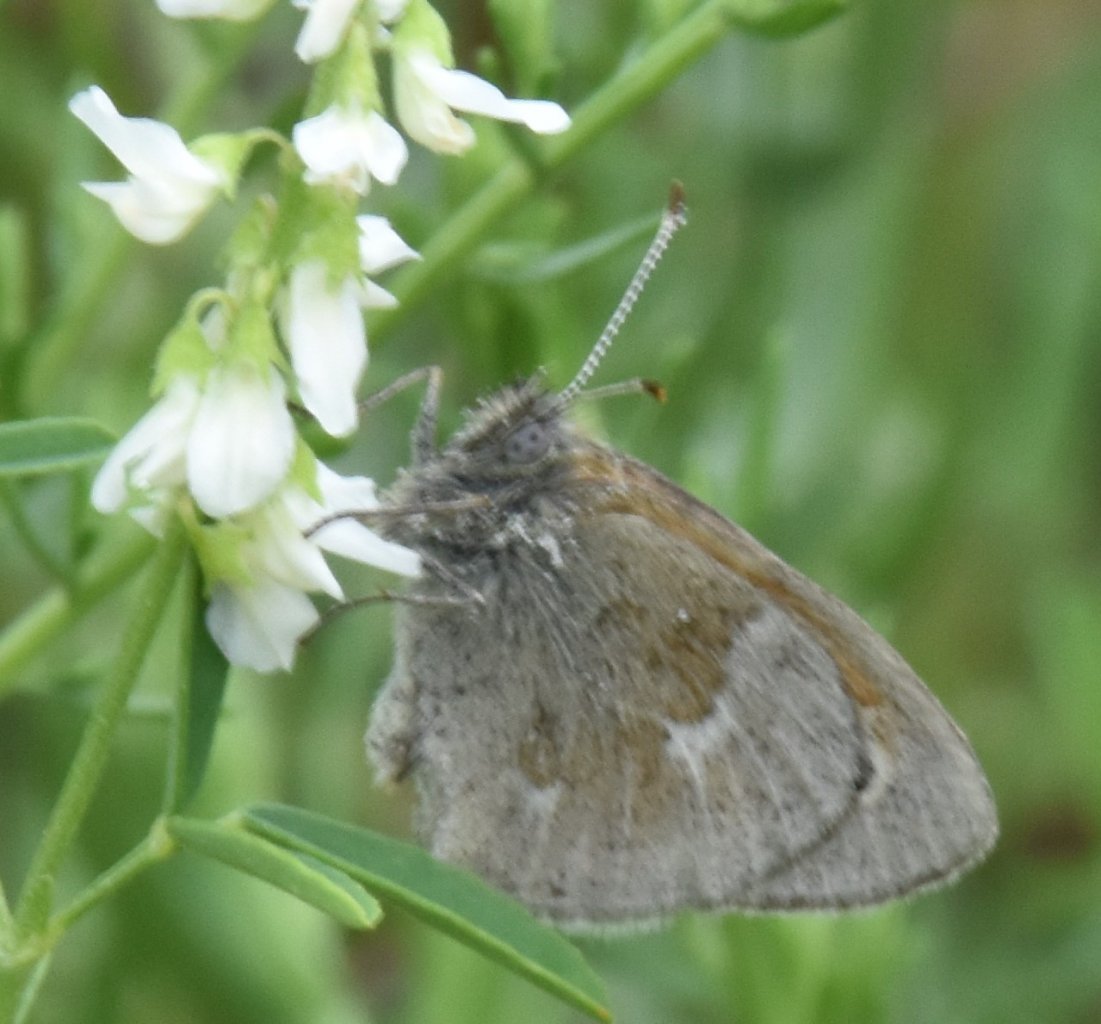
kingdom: Animalia
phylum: Arthropoda
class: Insecta
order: Lepidoptera
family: Nymphalidae
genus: Coenonympha
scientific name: Coenonympha tullia
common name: Large Heath
